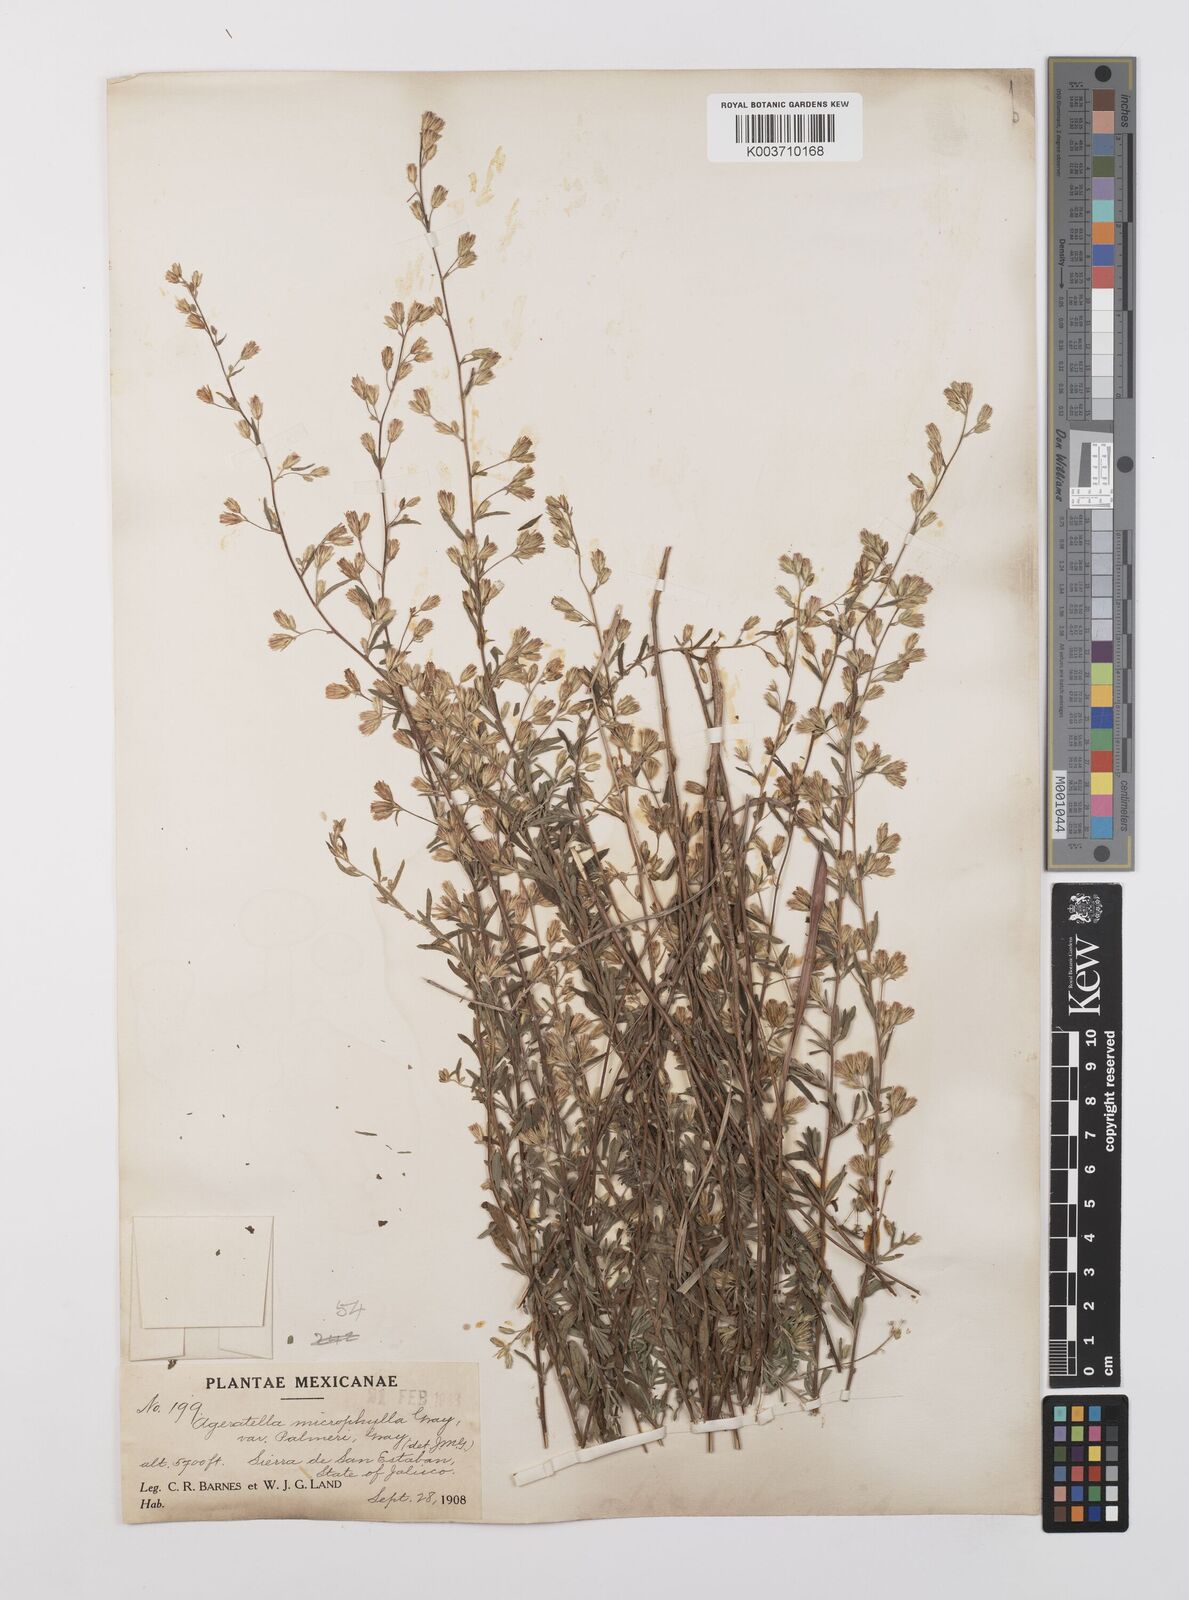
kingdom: Plantae
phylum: Tracheophyta
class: Magnoliopsida
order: Asterales
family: Asteraceae
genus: Ageratella
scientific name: Ageratella microphylla
